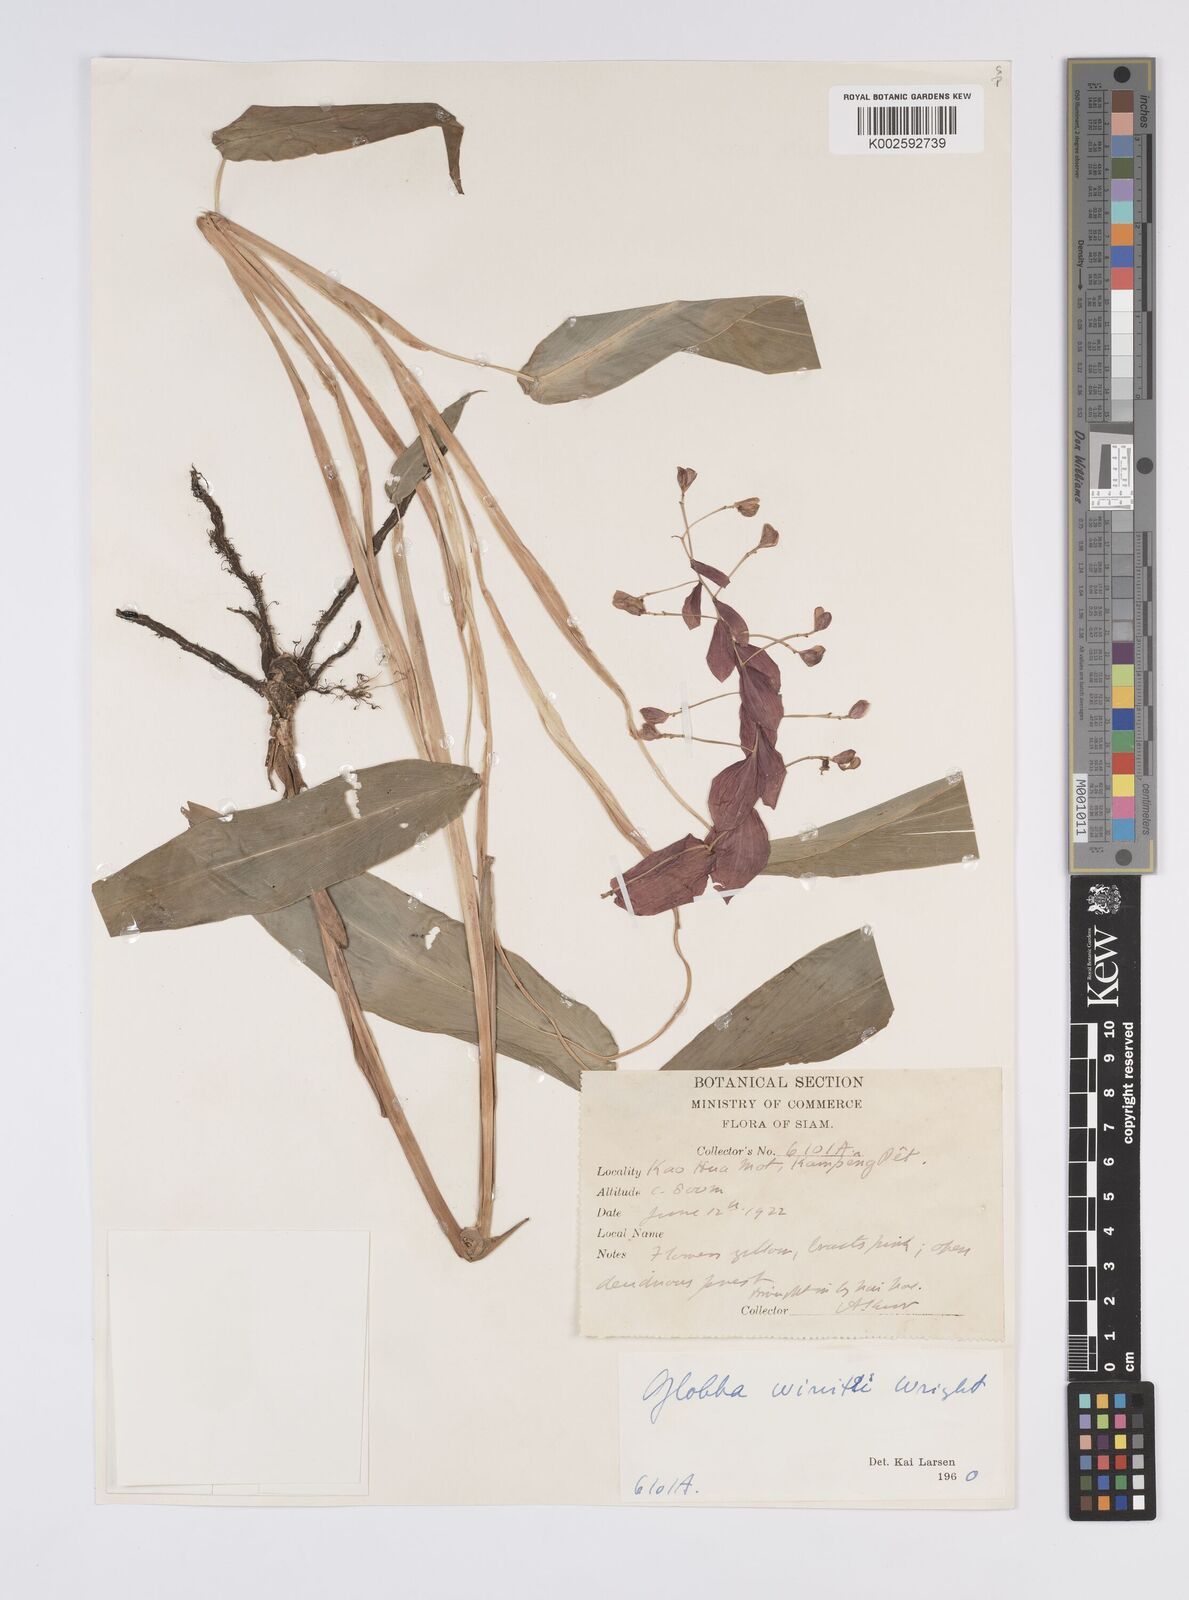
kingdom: Plantae
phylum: Tracheophyta
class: Liliopsida
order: Zingiberales
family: Zingiberaceae
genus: Globba
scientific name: Globba winitii
